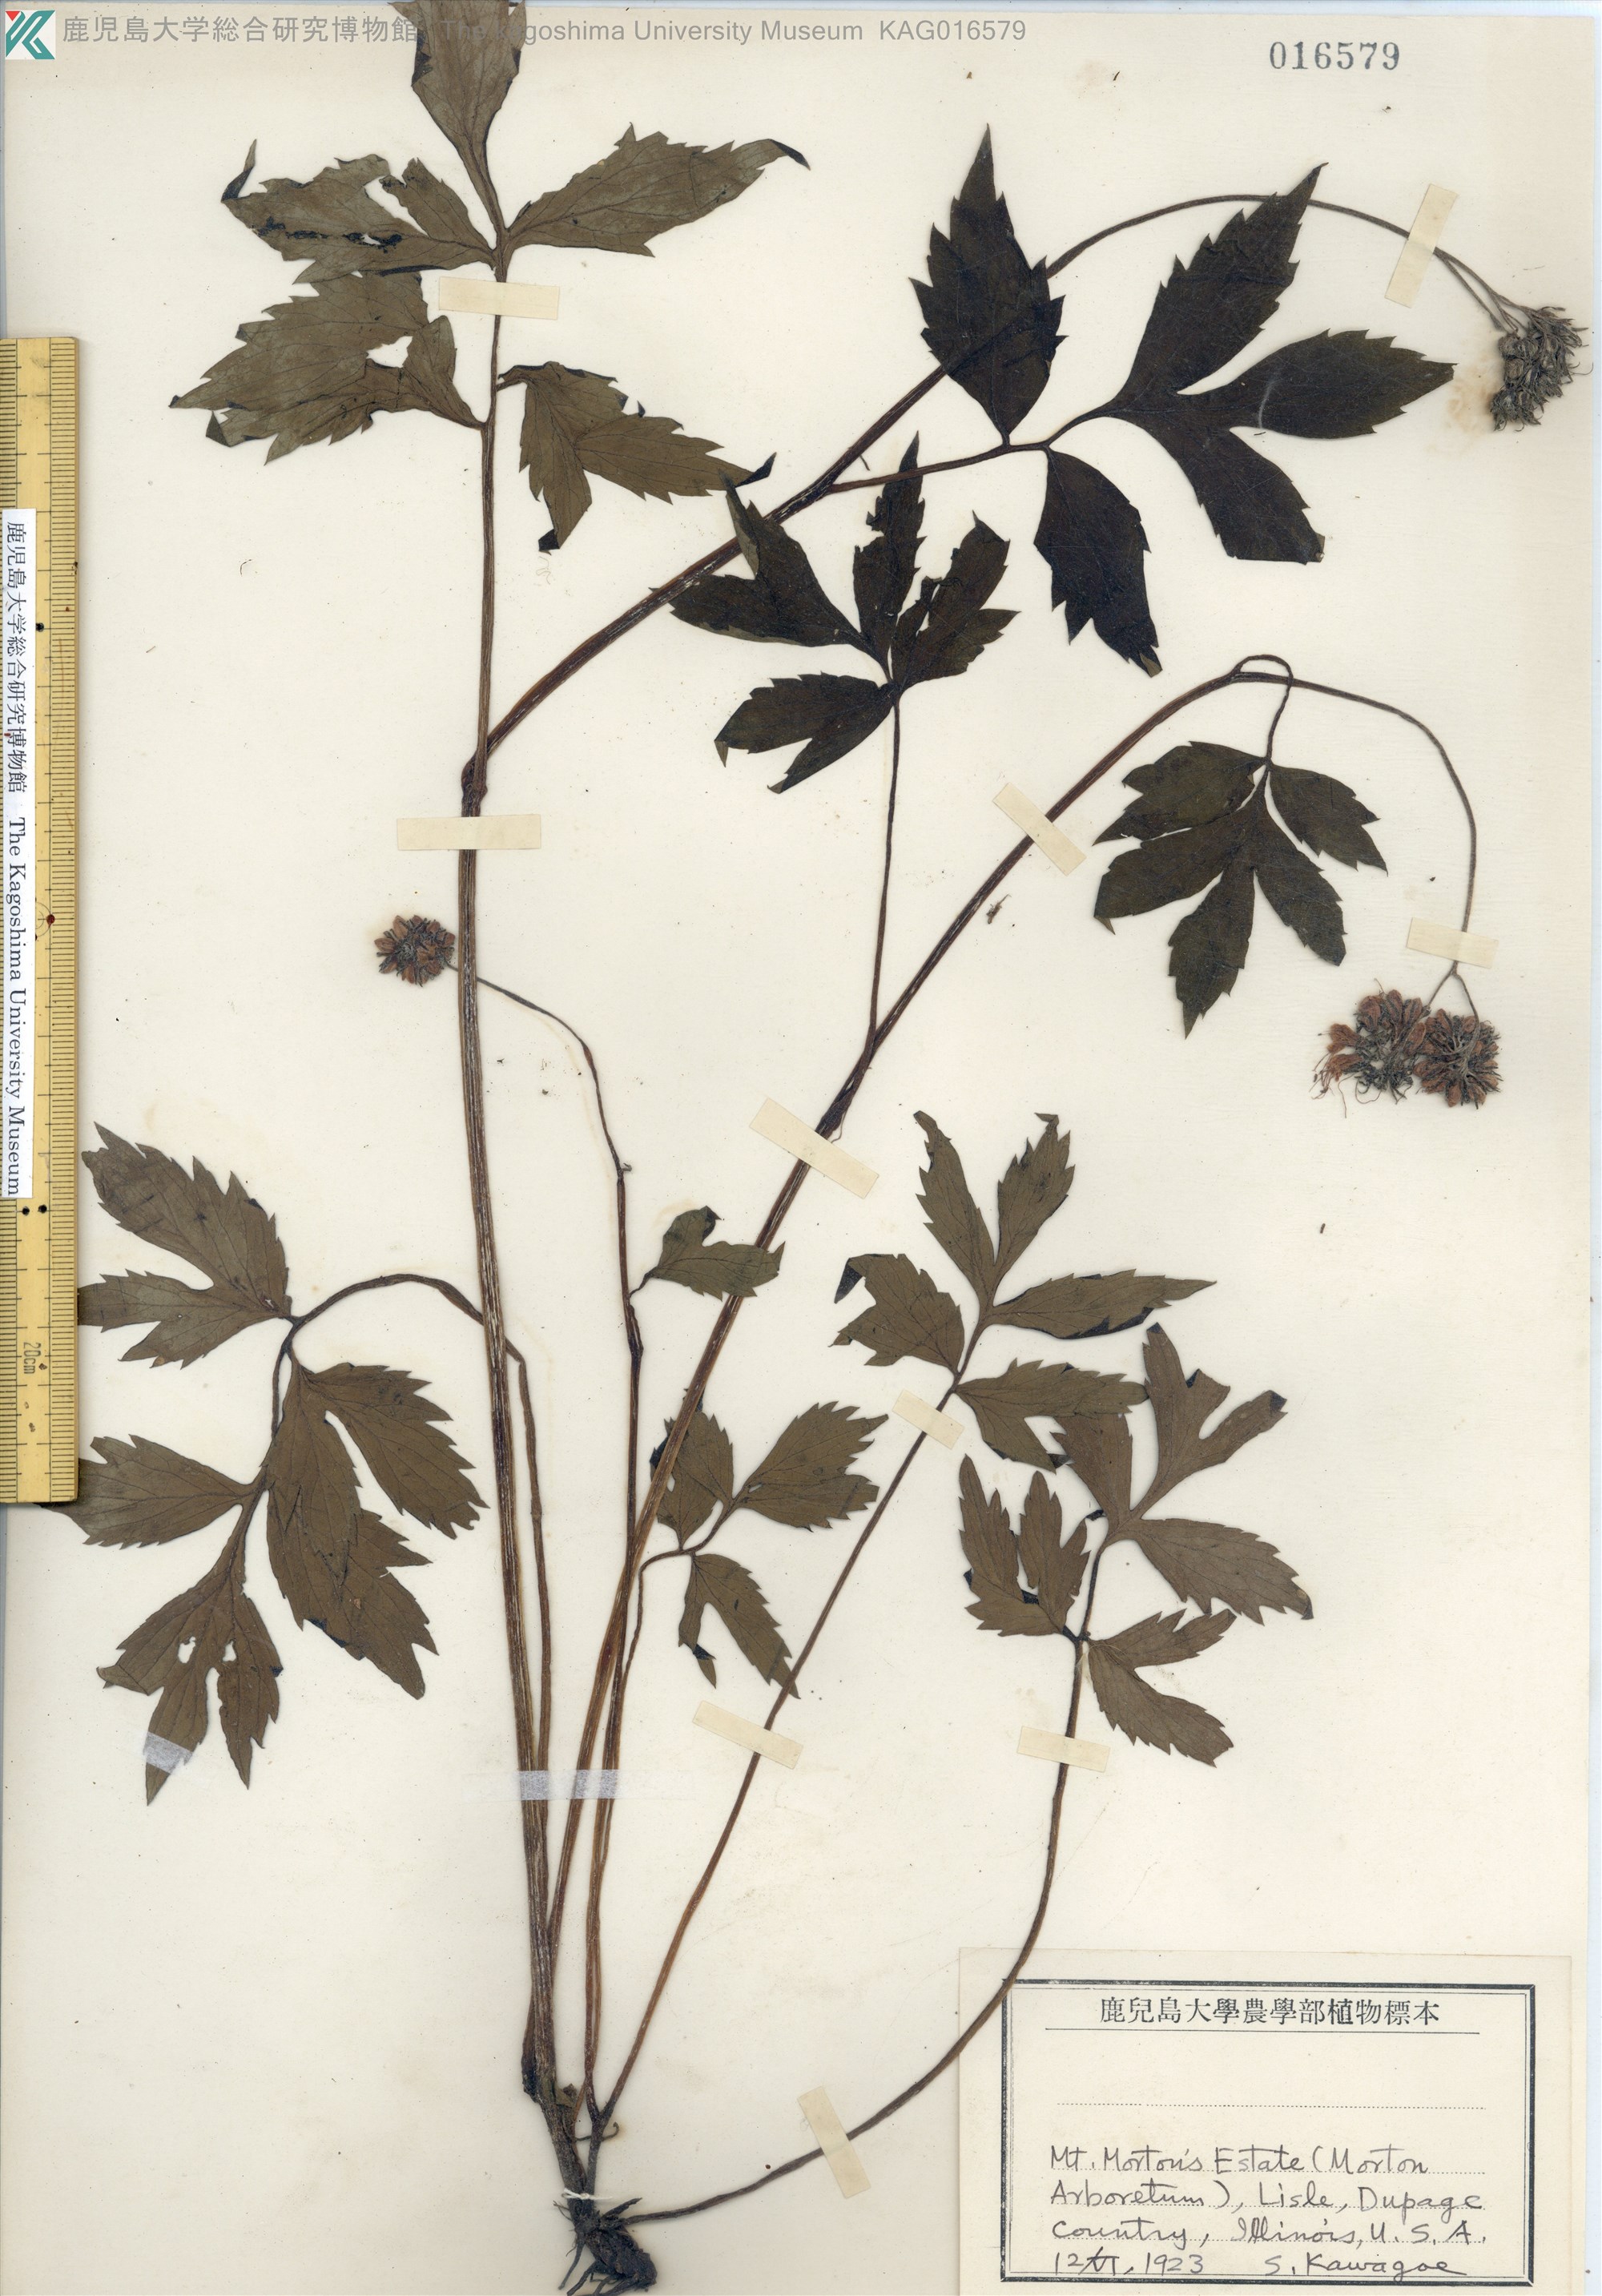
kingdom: Plantae
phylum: Tracheophyta
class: Magnoliopsida
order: Boraginales
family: Hydrophyllaceae
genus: Hydrophyllum
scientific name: Hydrophyllum virginianum
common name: Virginia waterleaf
